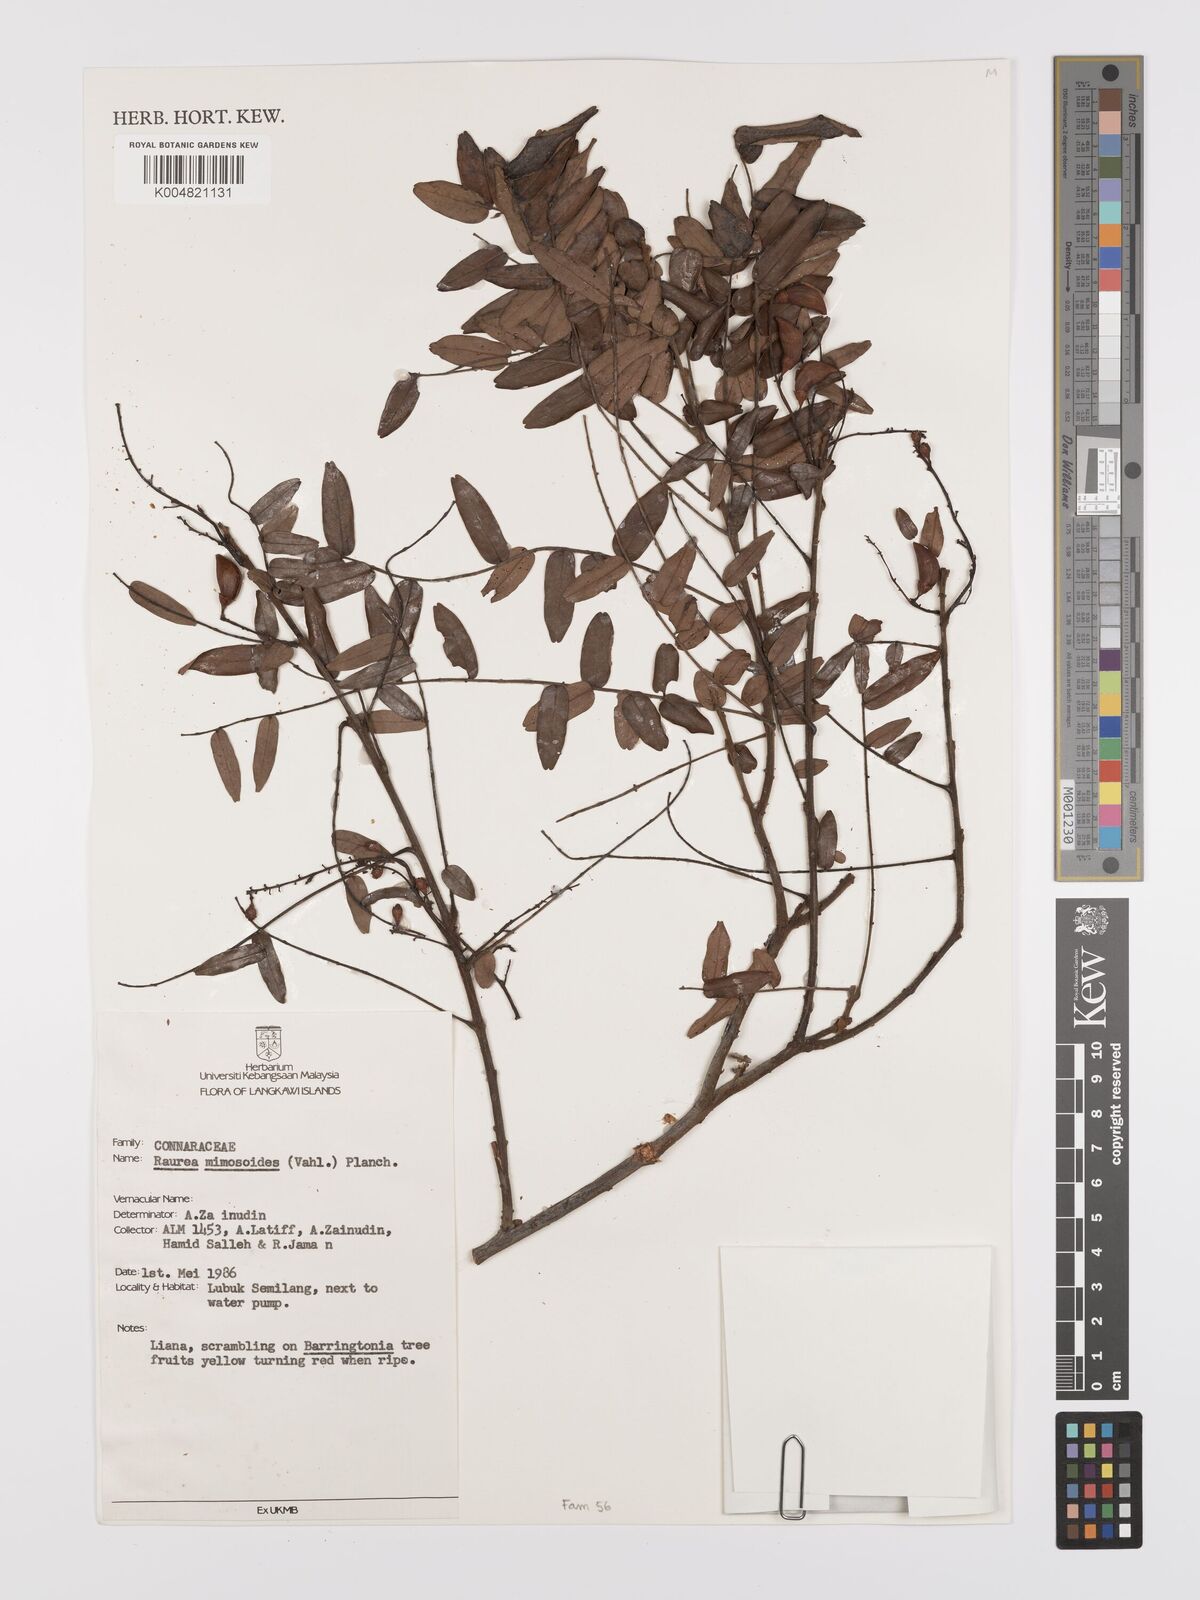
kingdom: Plantae
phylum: Tracheophyta
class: Magnoliopsida
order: Oxalidales
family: Connaraceae
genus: Rourea
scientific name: Rourea mimosoides
